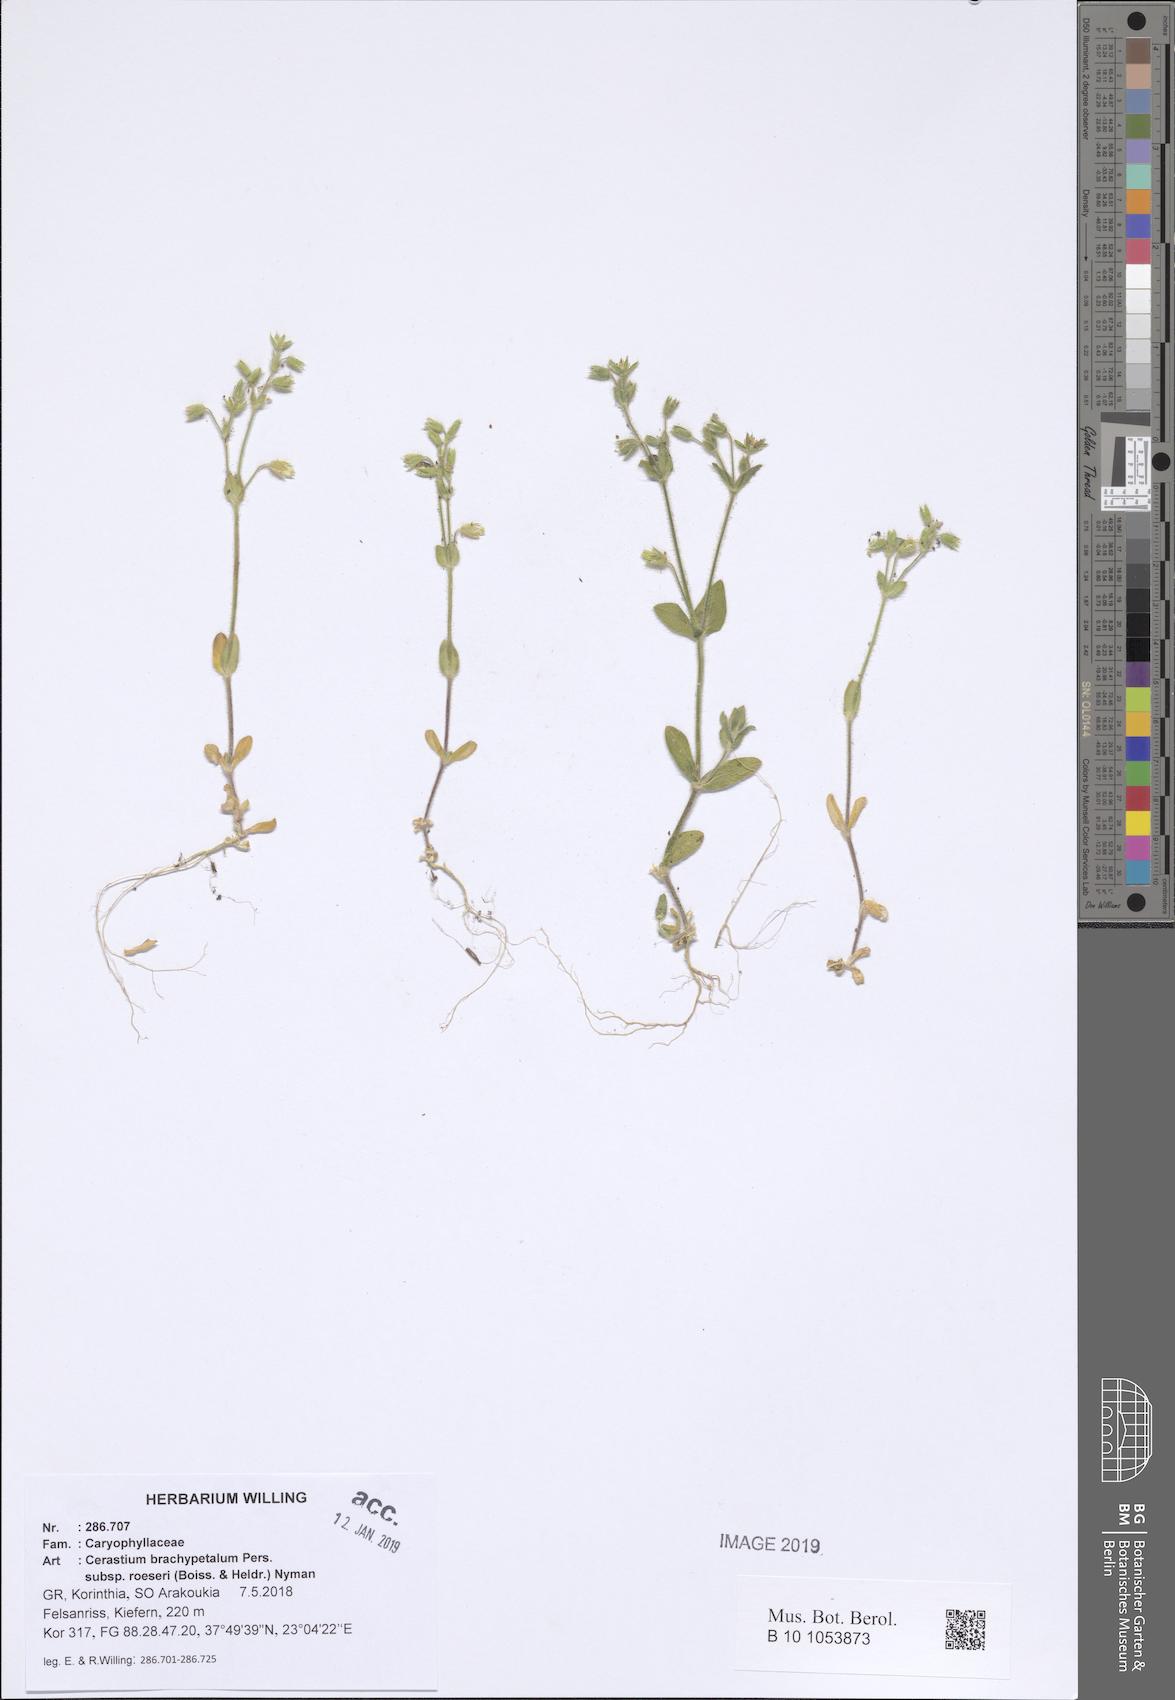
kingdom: Plantae
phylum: Tracheophyta
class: Magnoliopsida
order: Caryophyllales
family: Caryophyllaceae
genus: Cerastium
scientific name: Cerastium brachypetalum
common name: Grey mouse-ear
